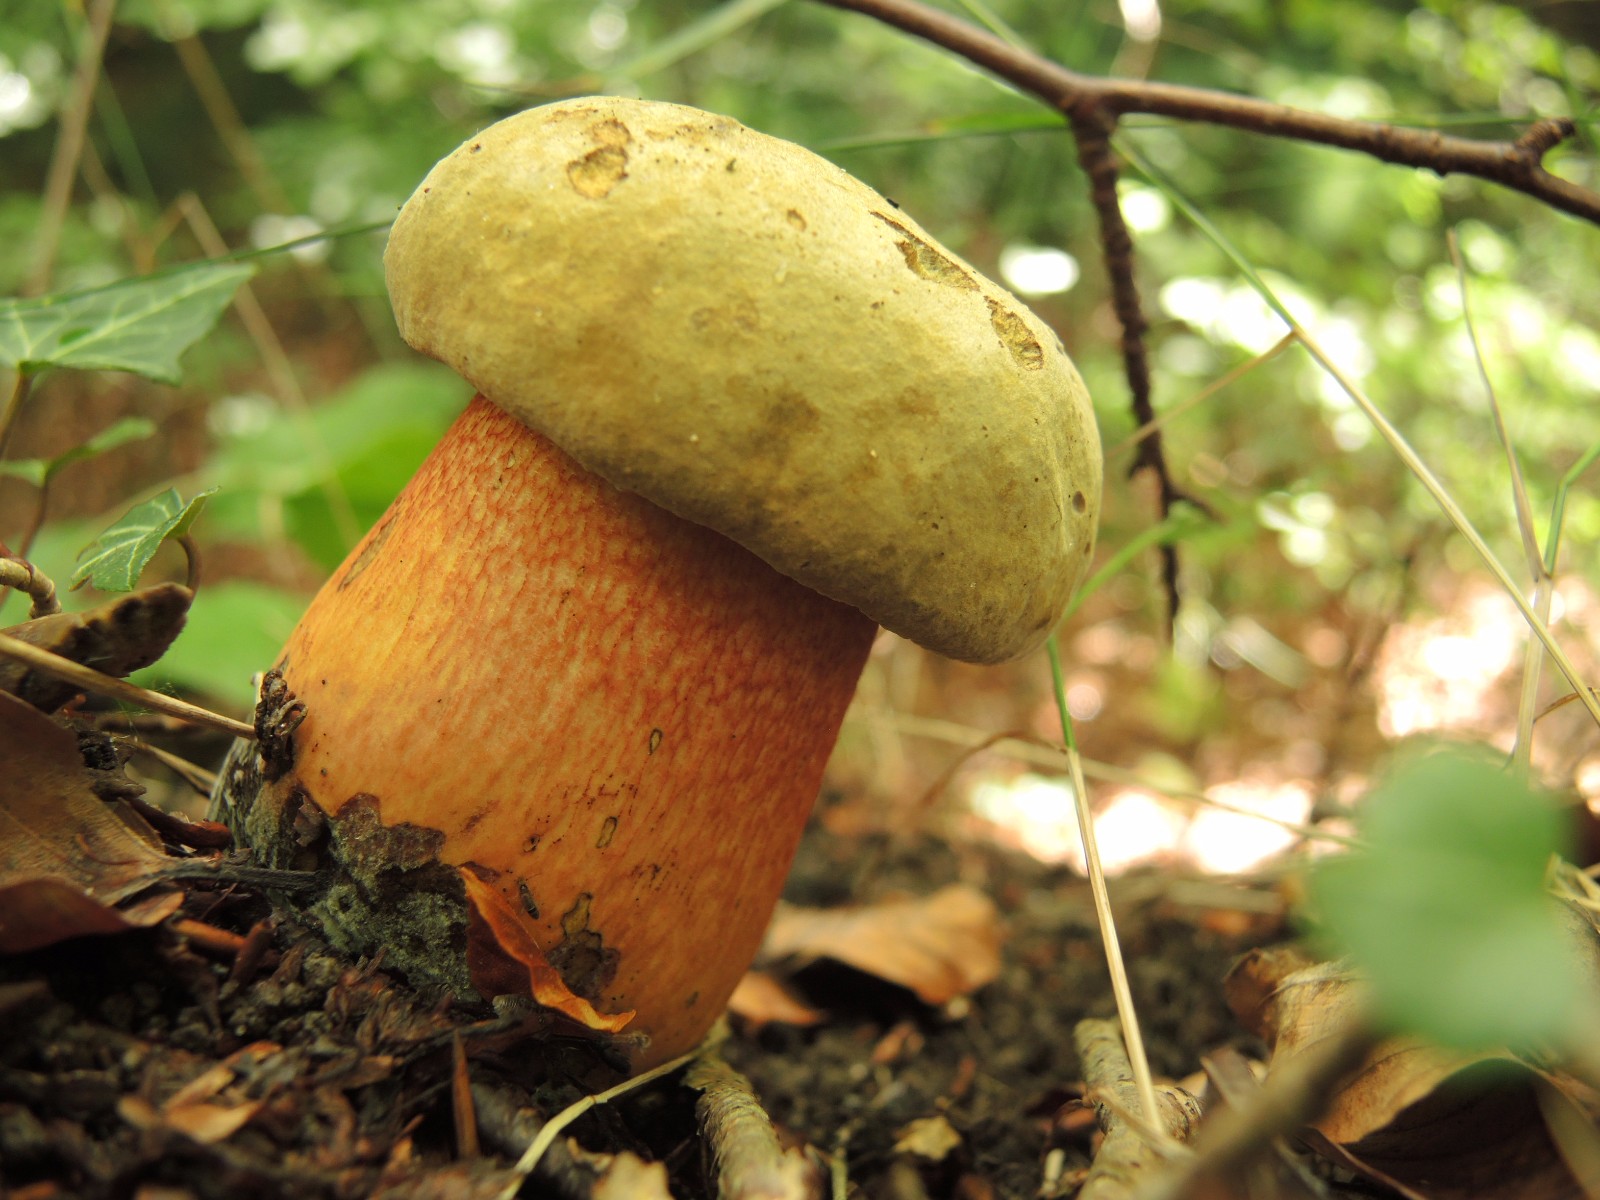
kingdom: Fungi
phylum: Basidiomycota
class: Agaricomycetes
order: Boletales
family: Boletaceae
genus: Suillellus
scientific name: Suillellus luridus
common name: netstokket indigorørhat
